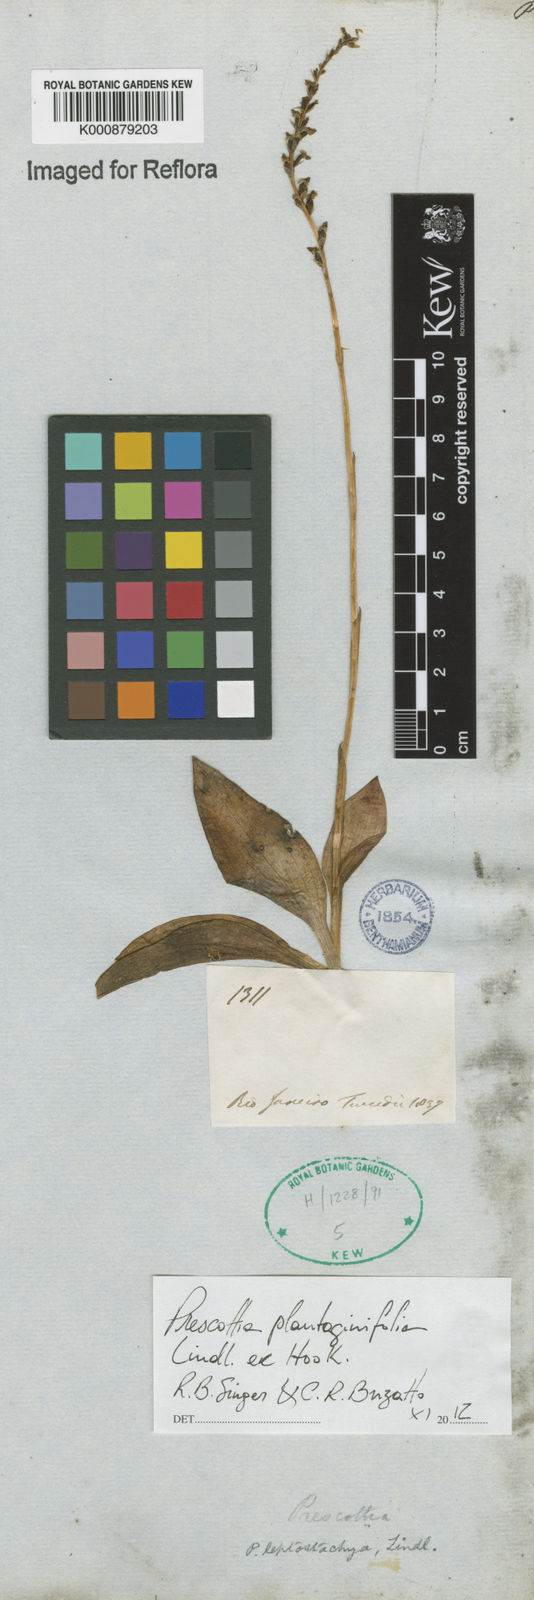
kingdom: Plantae
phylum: Tracheophyta
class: Liliopsida
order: Asparagales
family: Orchidaceae
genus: Prescottia
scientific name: Prescottia plantaginifolia
